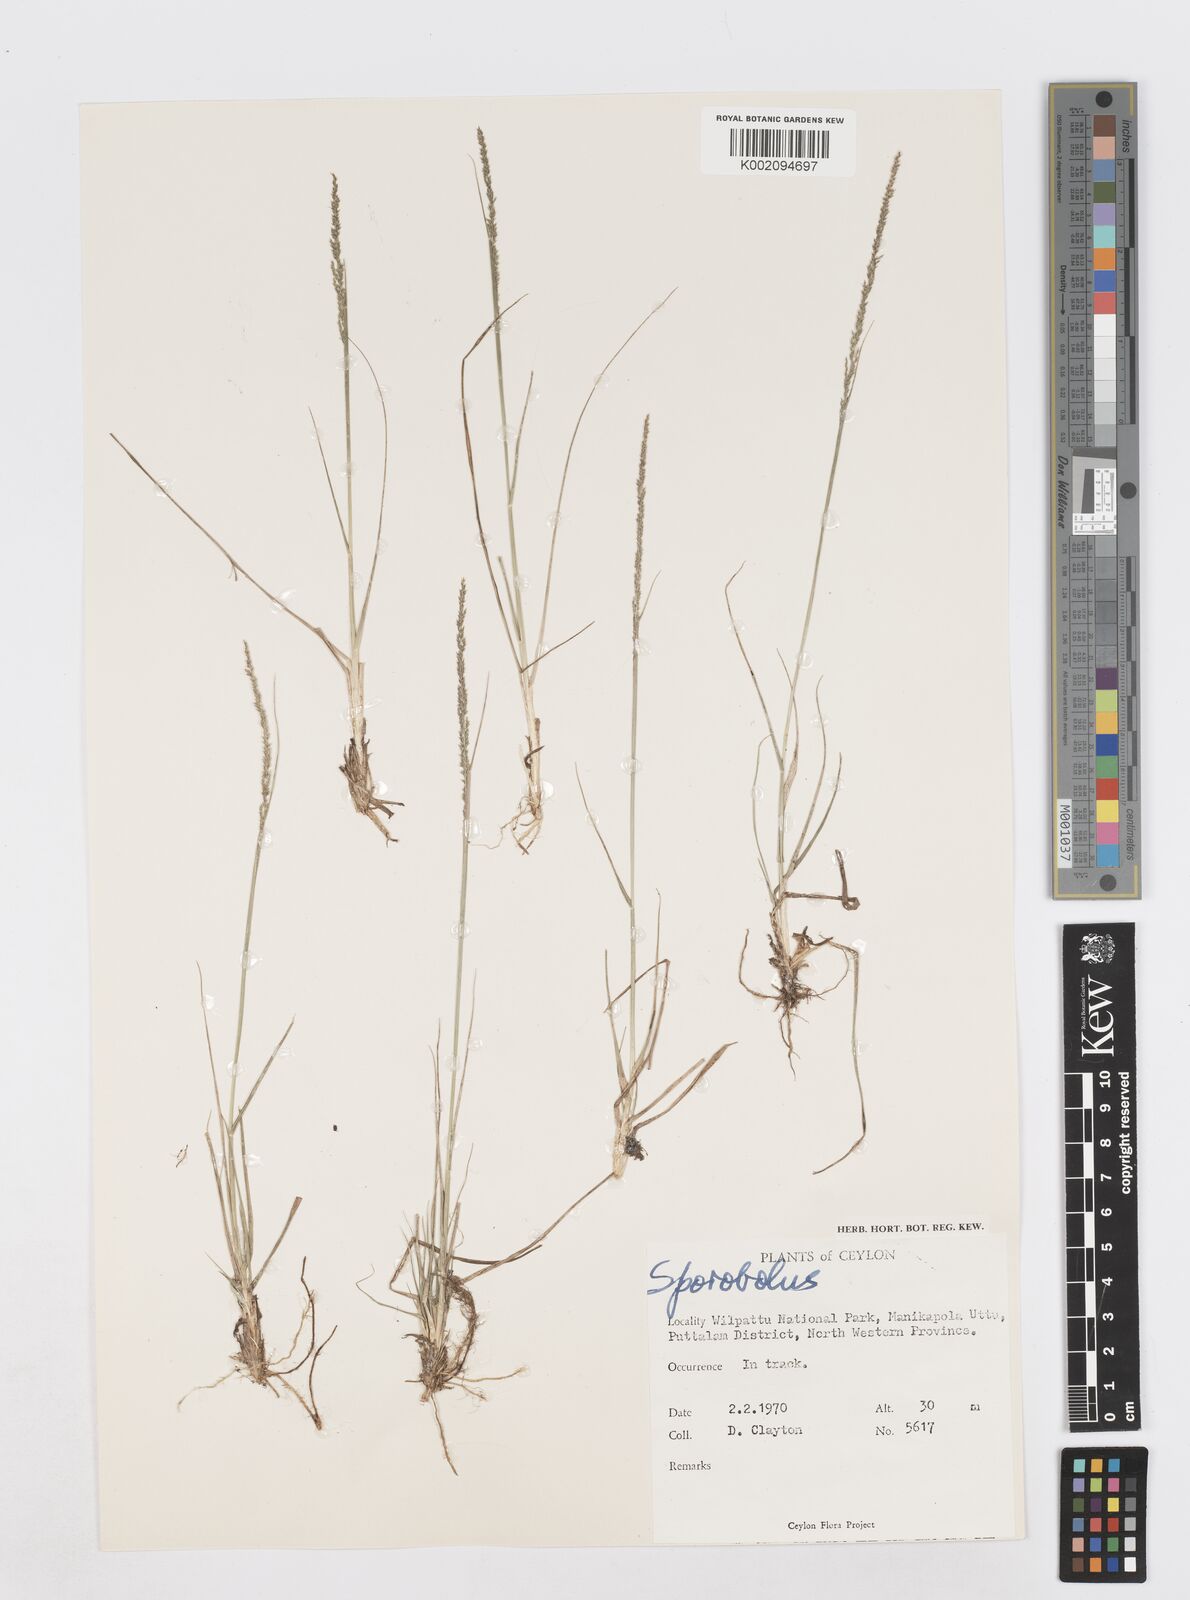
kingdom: Plantae
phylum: Tracheophyta
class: Liliopsida
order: Poales
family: Poaceae
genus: Sporobolus
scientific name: Sporobolus
